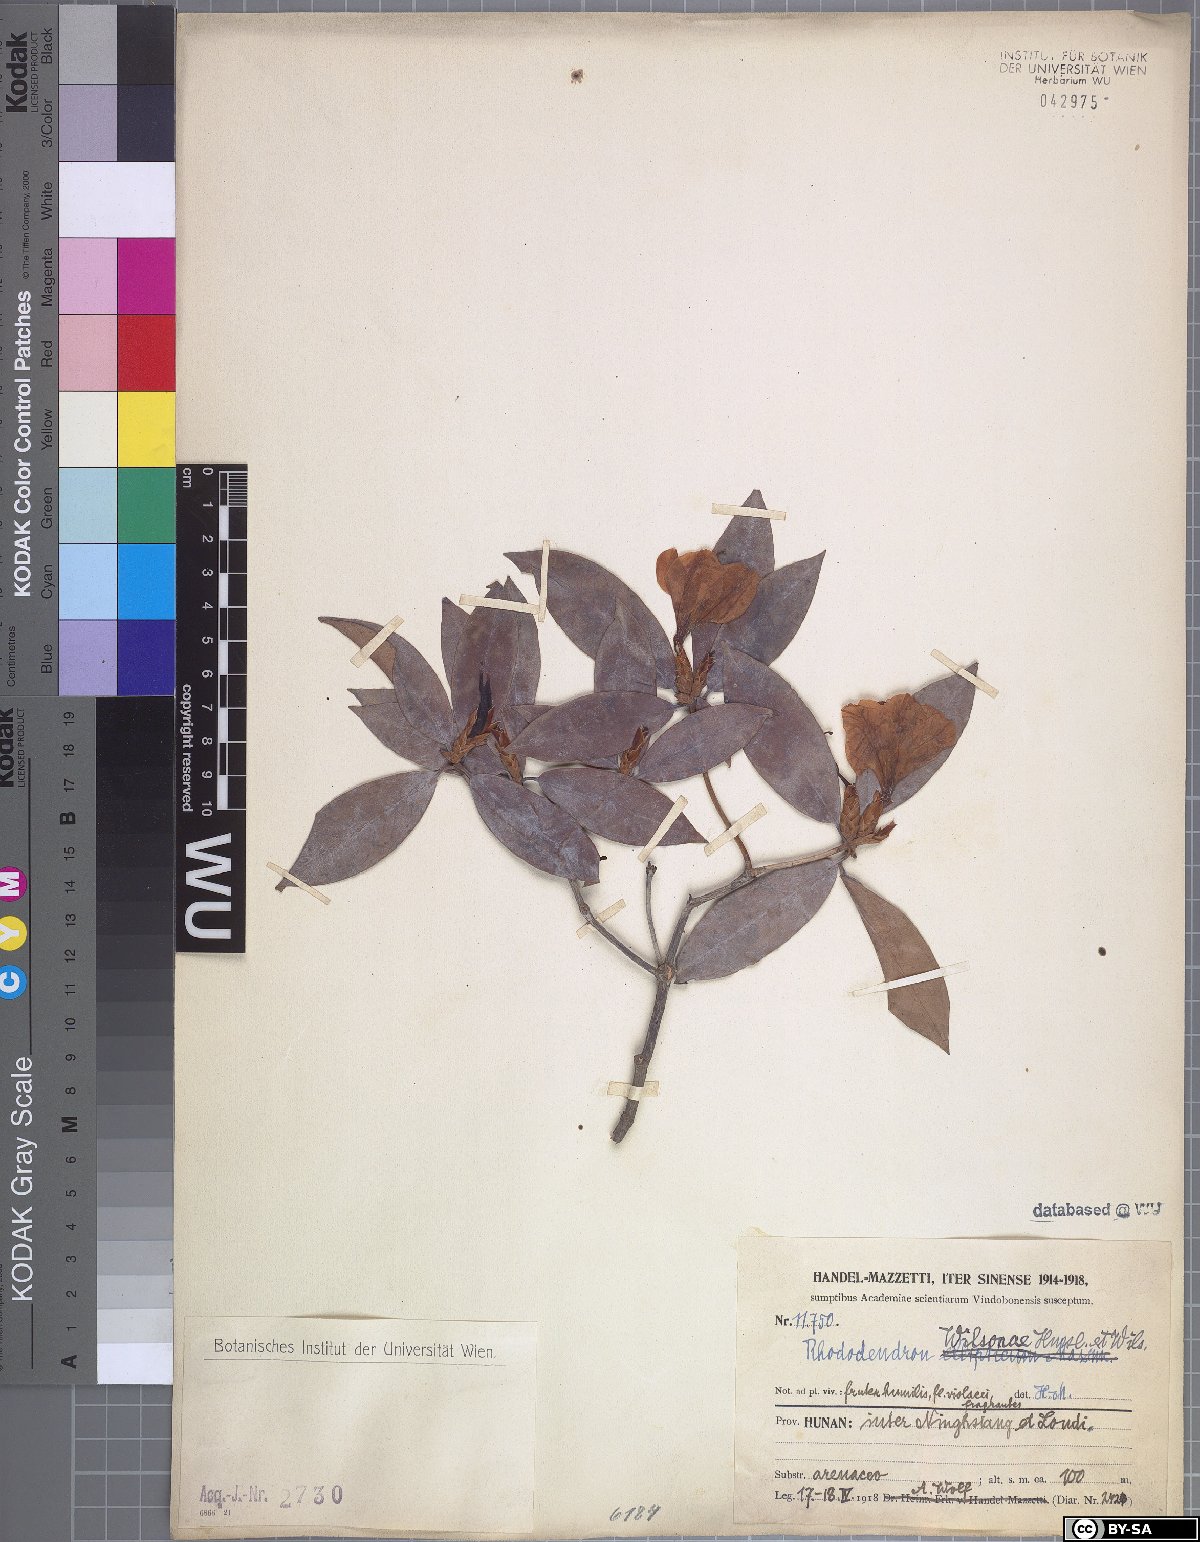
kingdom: Plantae
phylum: Tracheophyta
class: Magnoliopsida
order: Ericales
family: Ericaceae
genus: Rhododendron
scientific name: Rhododendron latoucheae
